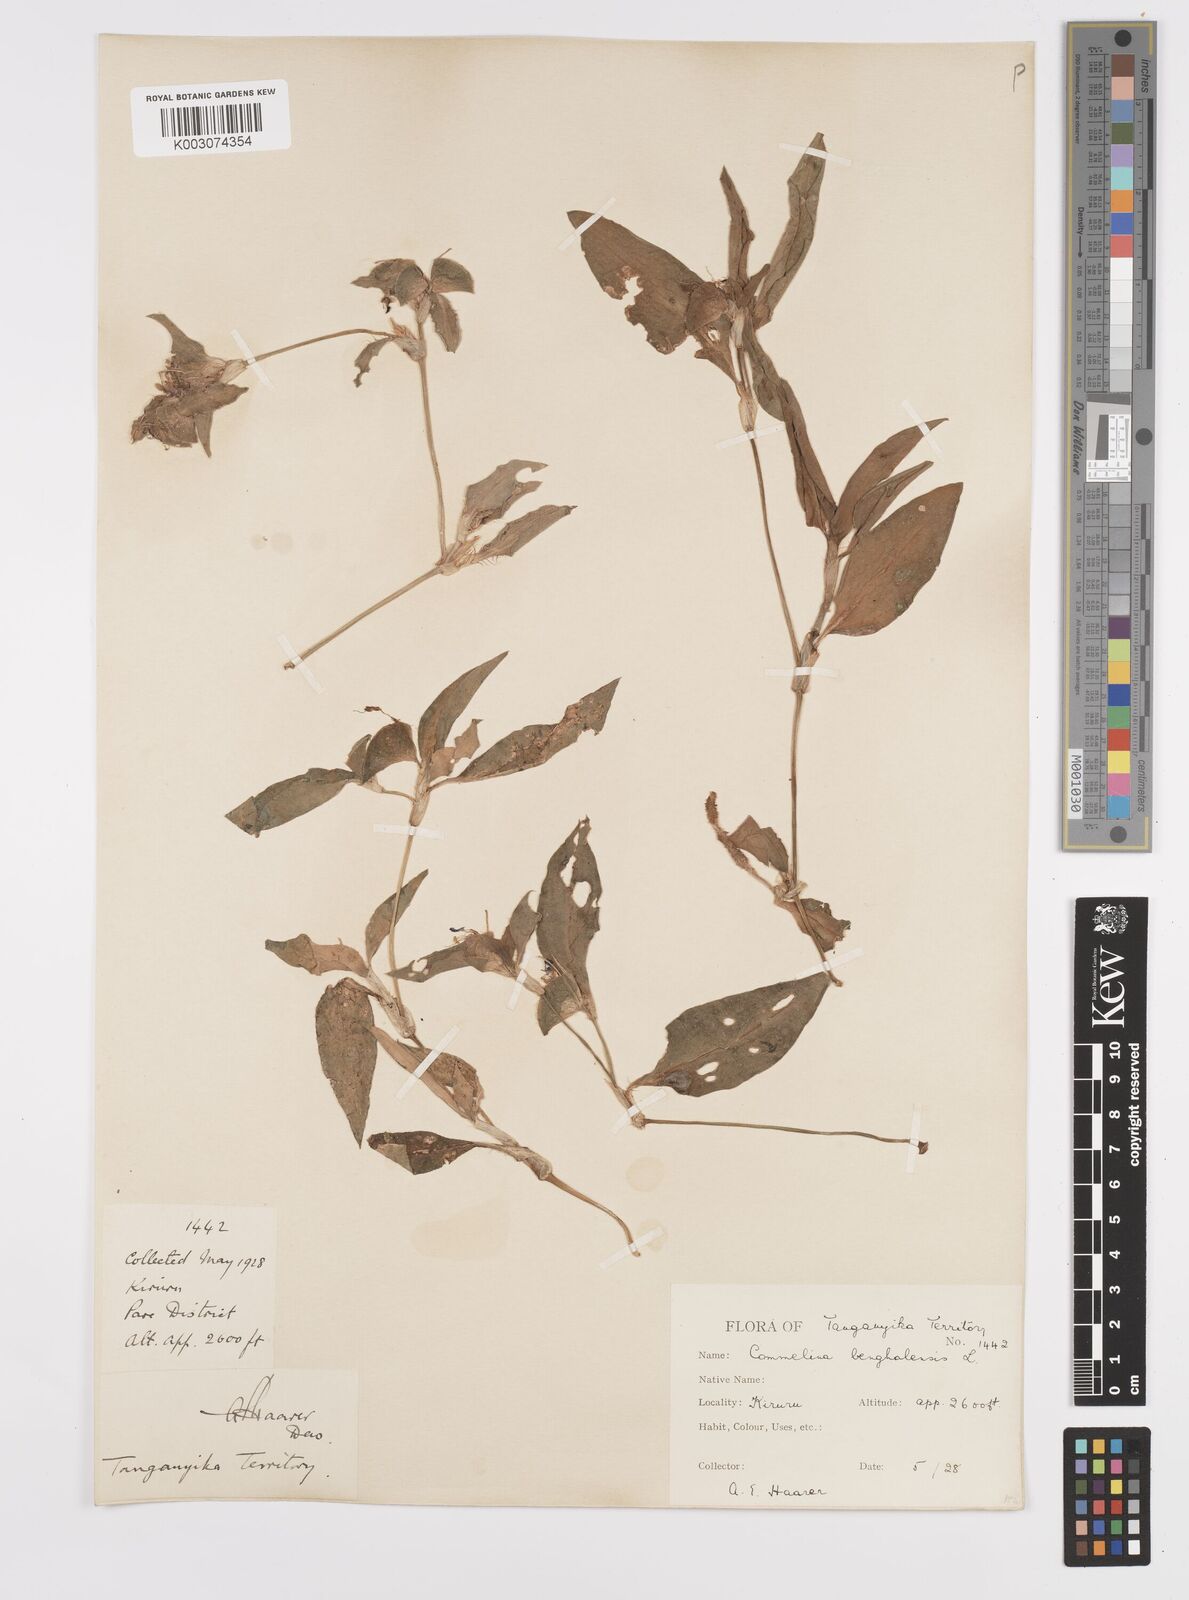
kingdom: Plantae
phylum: Tracheophyta
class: Liliopsida
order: Commelinales
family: Commelinaceae
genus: Commelina
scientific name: Commelina benghalensis
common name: Jio
